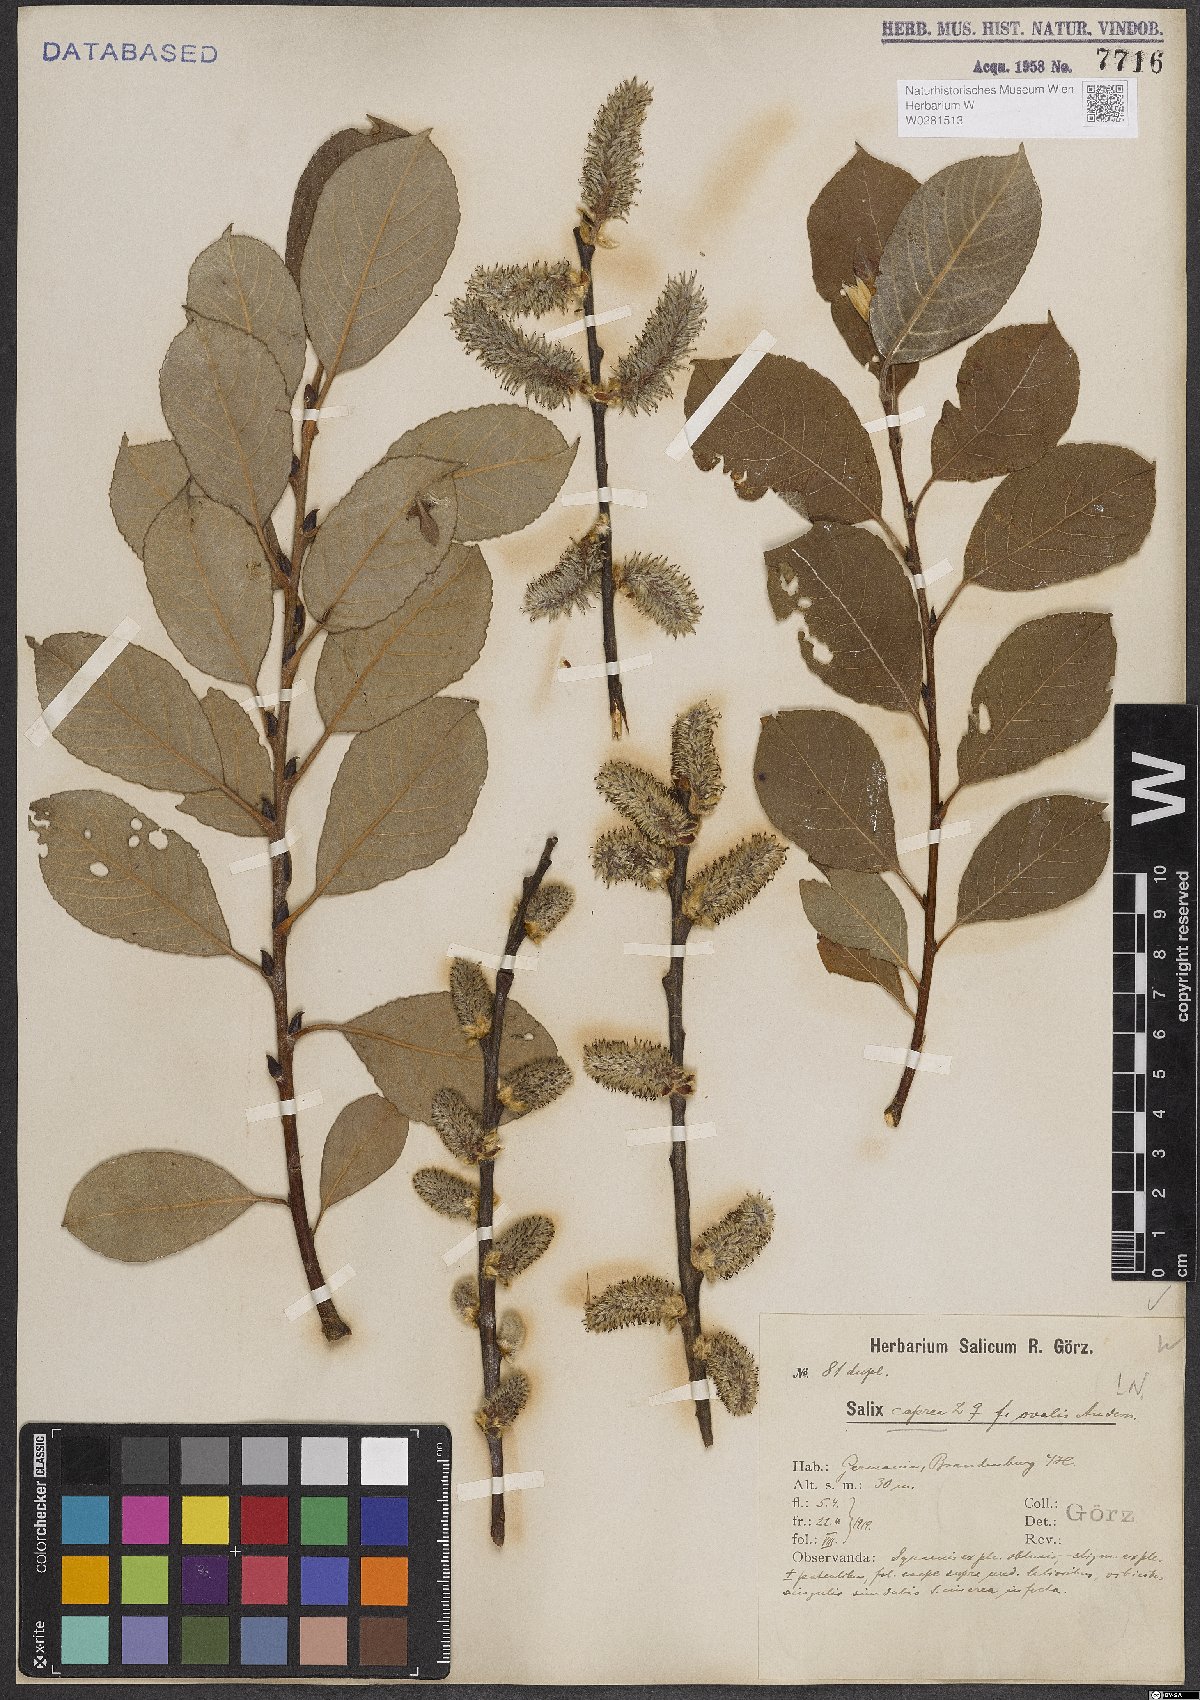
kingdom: Plantae
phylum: Tracheophyta
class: Magnoliopsida
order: Malpighiales
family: Salicaceae
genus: Salix
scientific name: Salix caprea
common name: Goat willow
